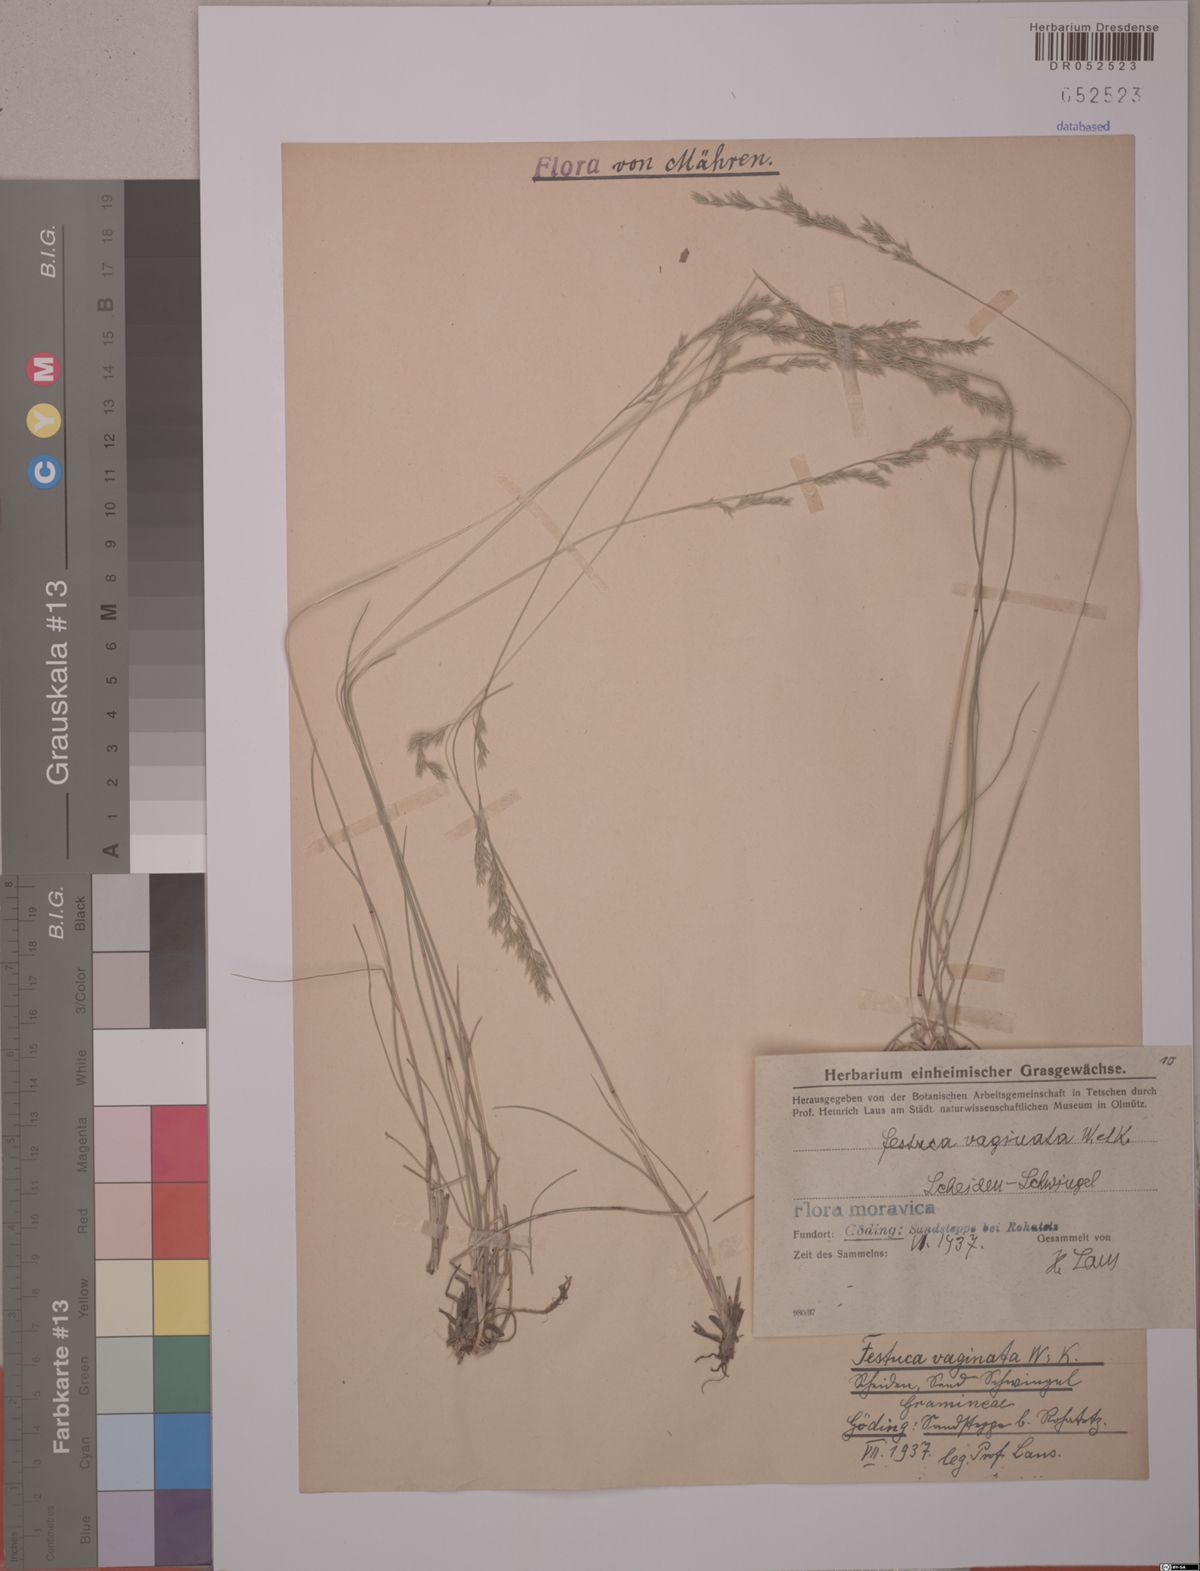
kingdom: Plantae
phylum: Tracheophyta
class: Liliopsida
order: Poales
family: Poaceae
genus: Festuca
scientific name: Festuca vaginata
